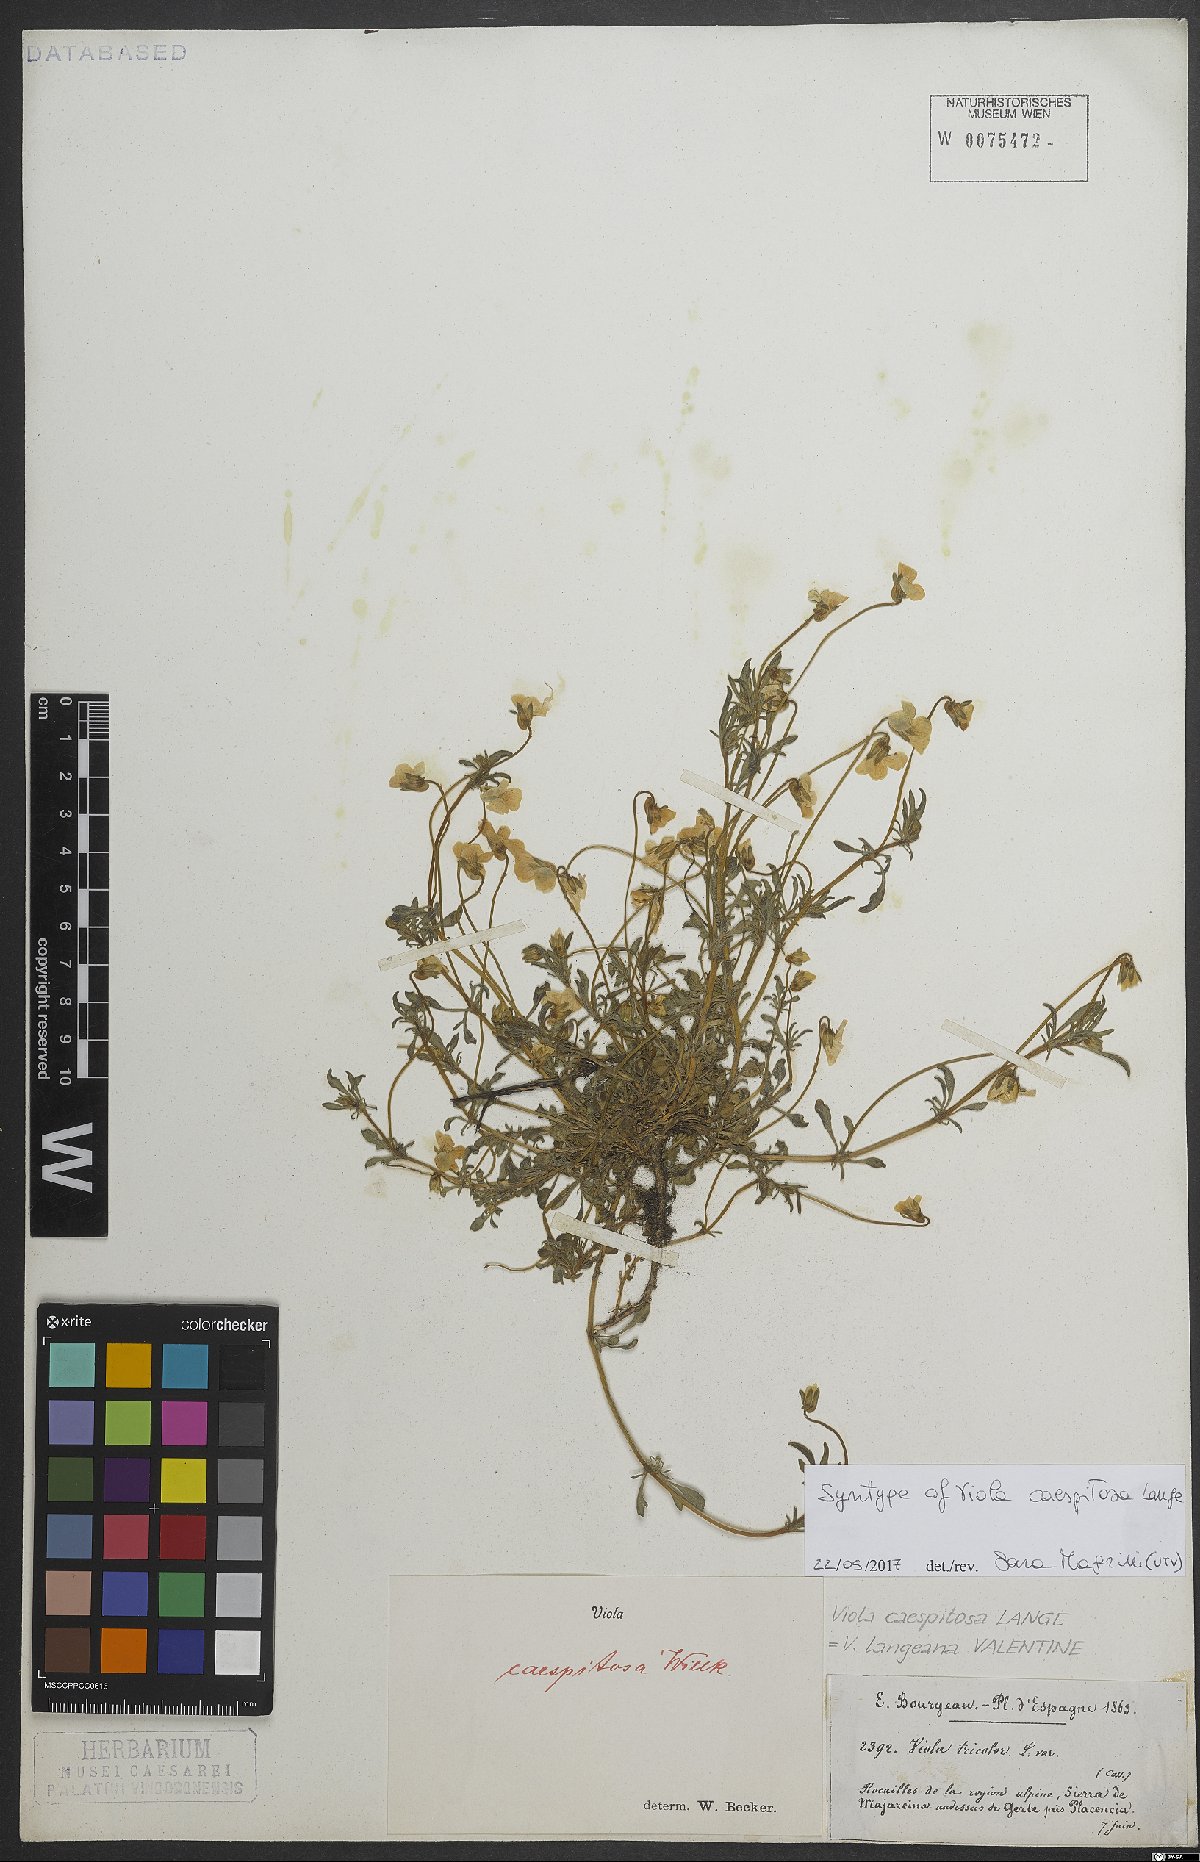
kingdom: Plantae
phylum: Tracheophyta
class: Magnoliopsida
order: Malpighiales
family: Violaceae
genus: Viola
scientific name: Viola langeana
